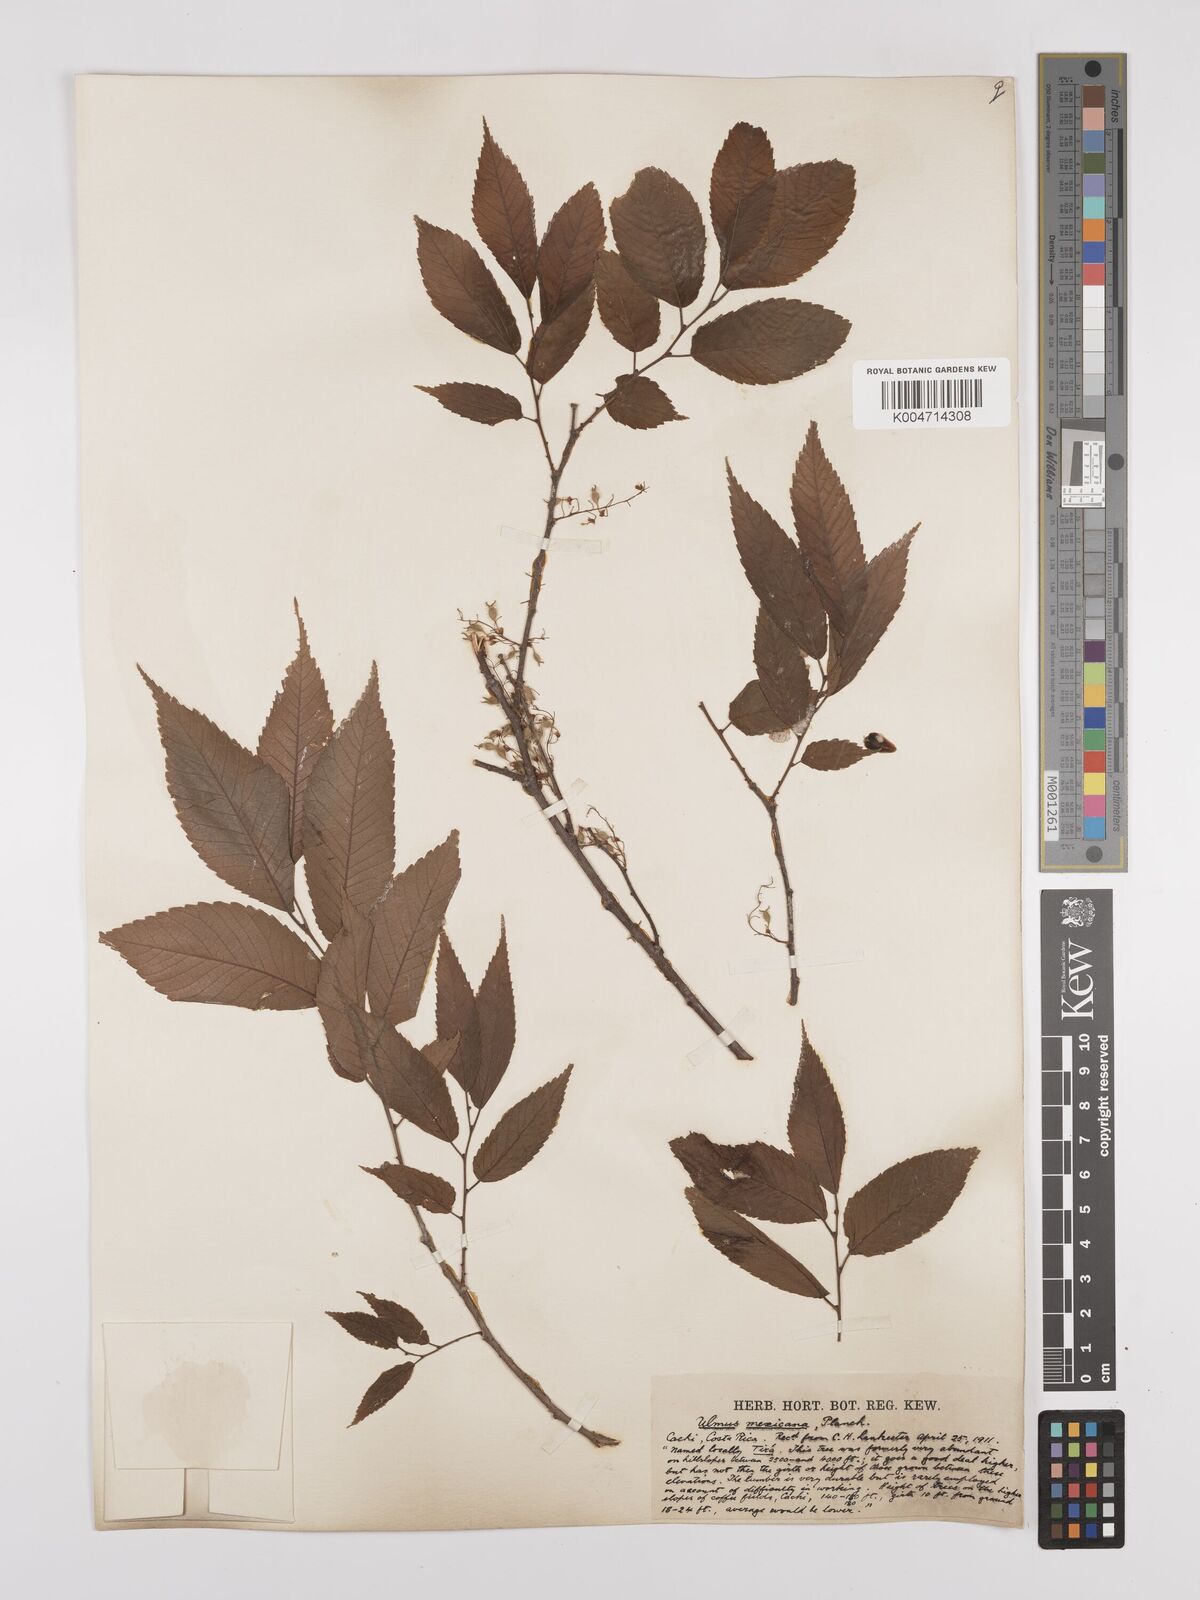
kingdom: Plantae
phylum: Tracheophyta
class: Magnoliopsida
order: Rosales
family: Ulmaceae
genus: Ulmus
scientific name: Ulmus mexicana
